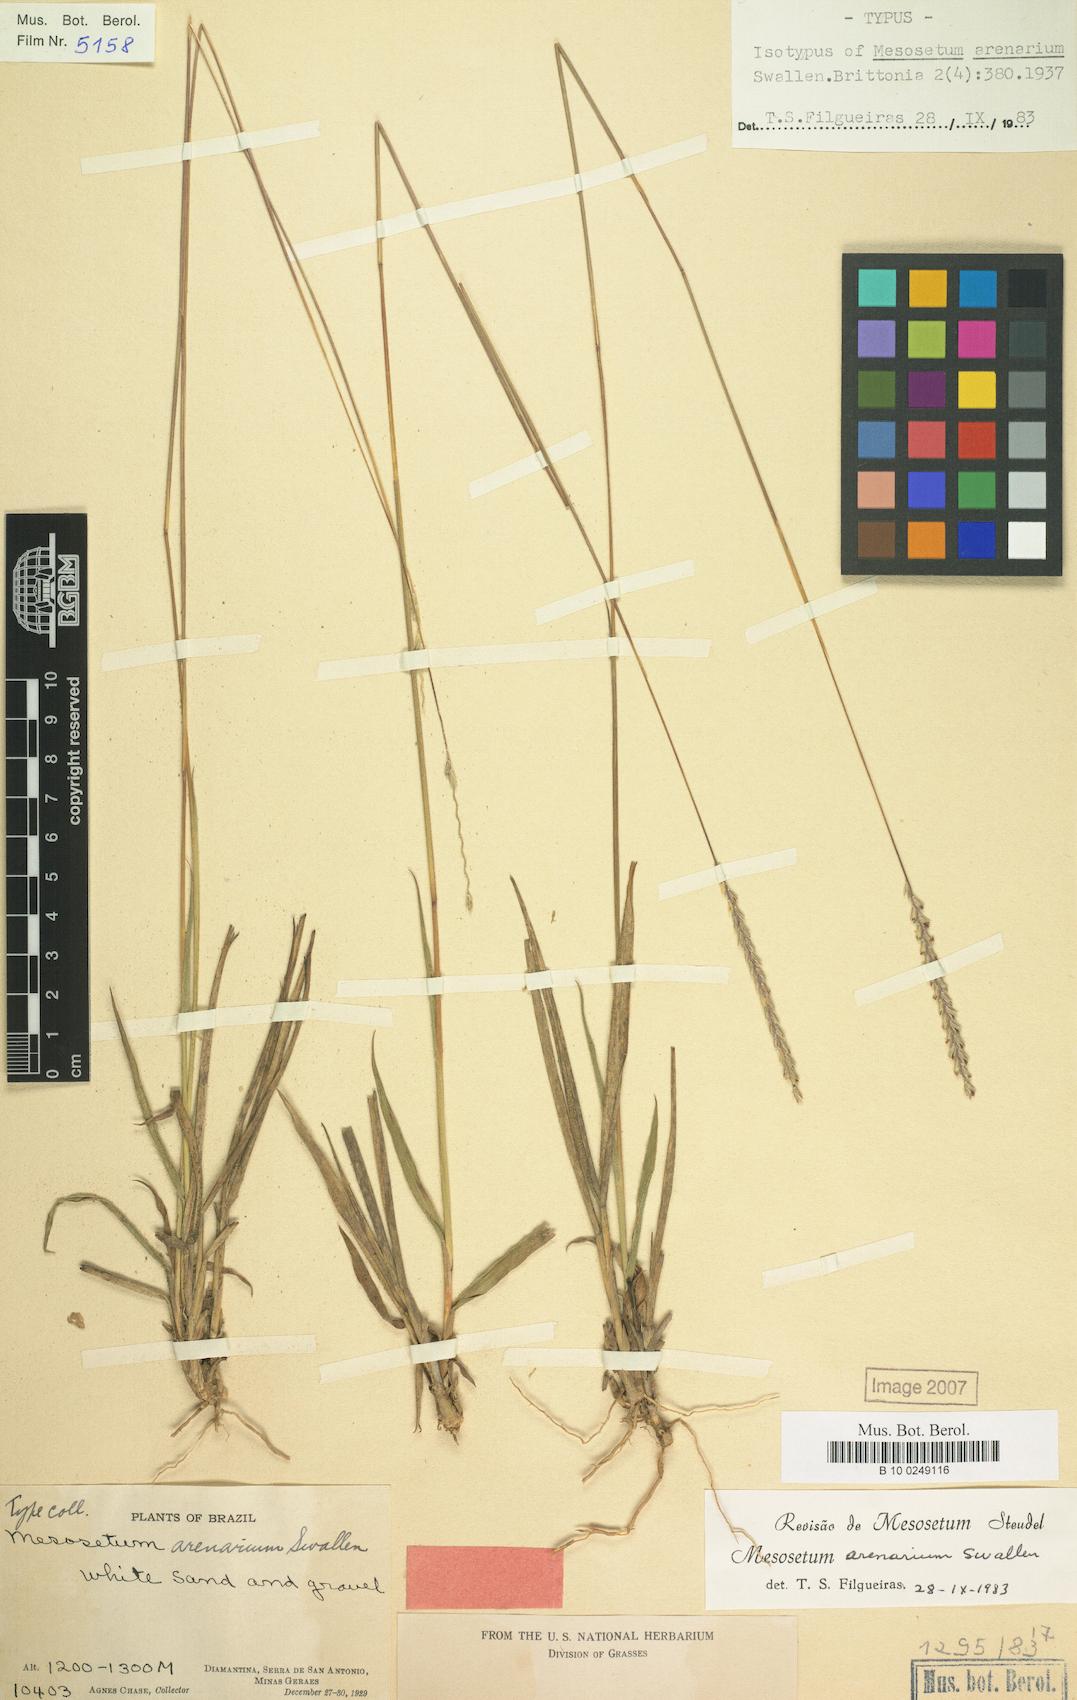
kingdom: Plantae
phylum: Tracheophyta
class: Liliopsida
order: Poales
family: Poaceae
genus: Mesosetum
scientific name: Mesosetum arenarium
